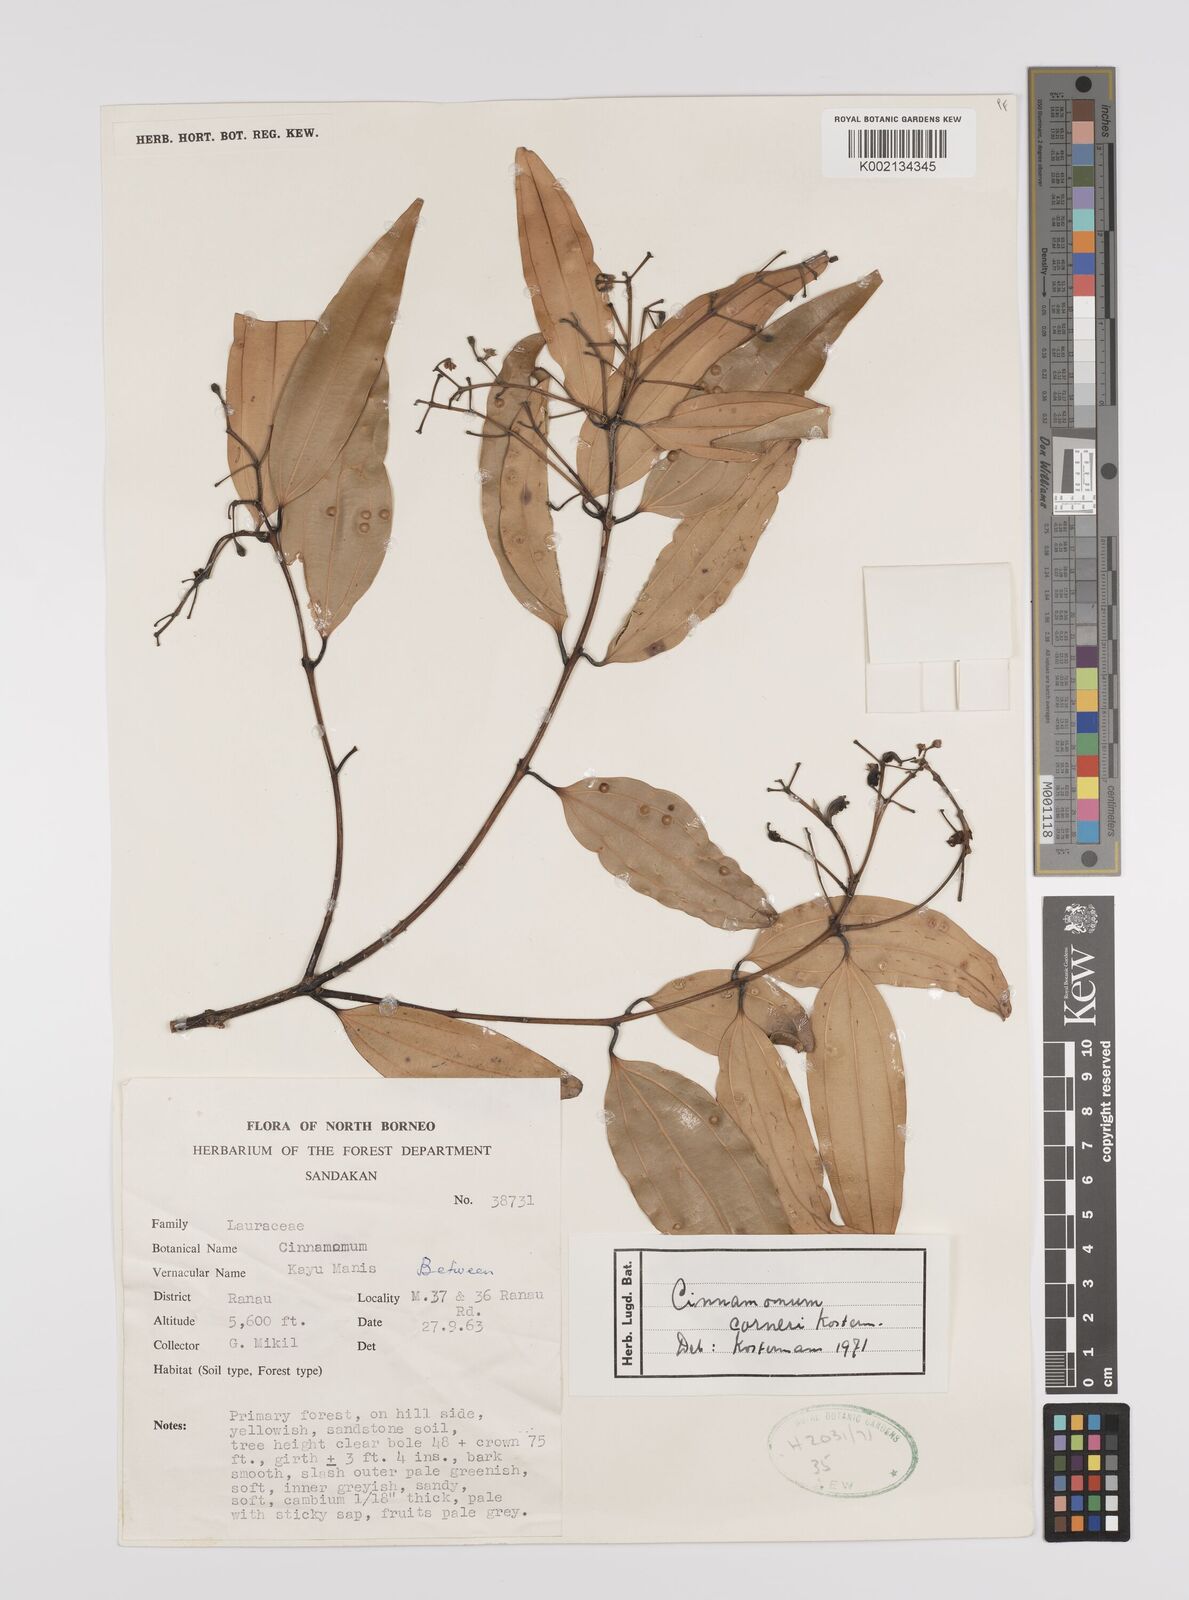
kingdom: Plantae
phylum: Tracheophyta
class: Magnoliopsida
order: Laurales
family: Lauraceae
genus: Cinnamomum
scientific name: Cinnamomum corneri
